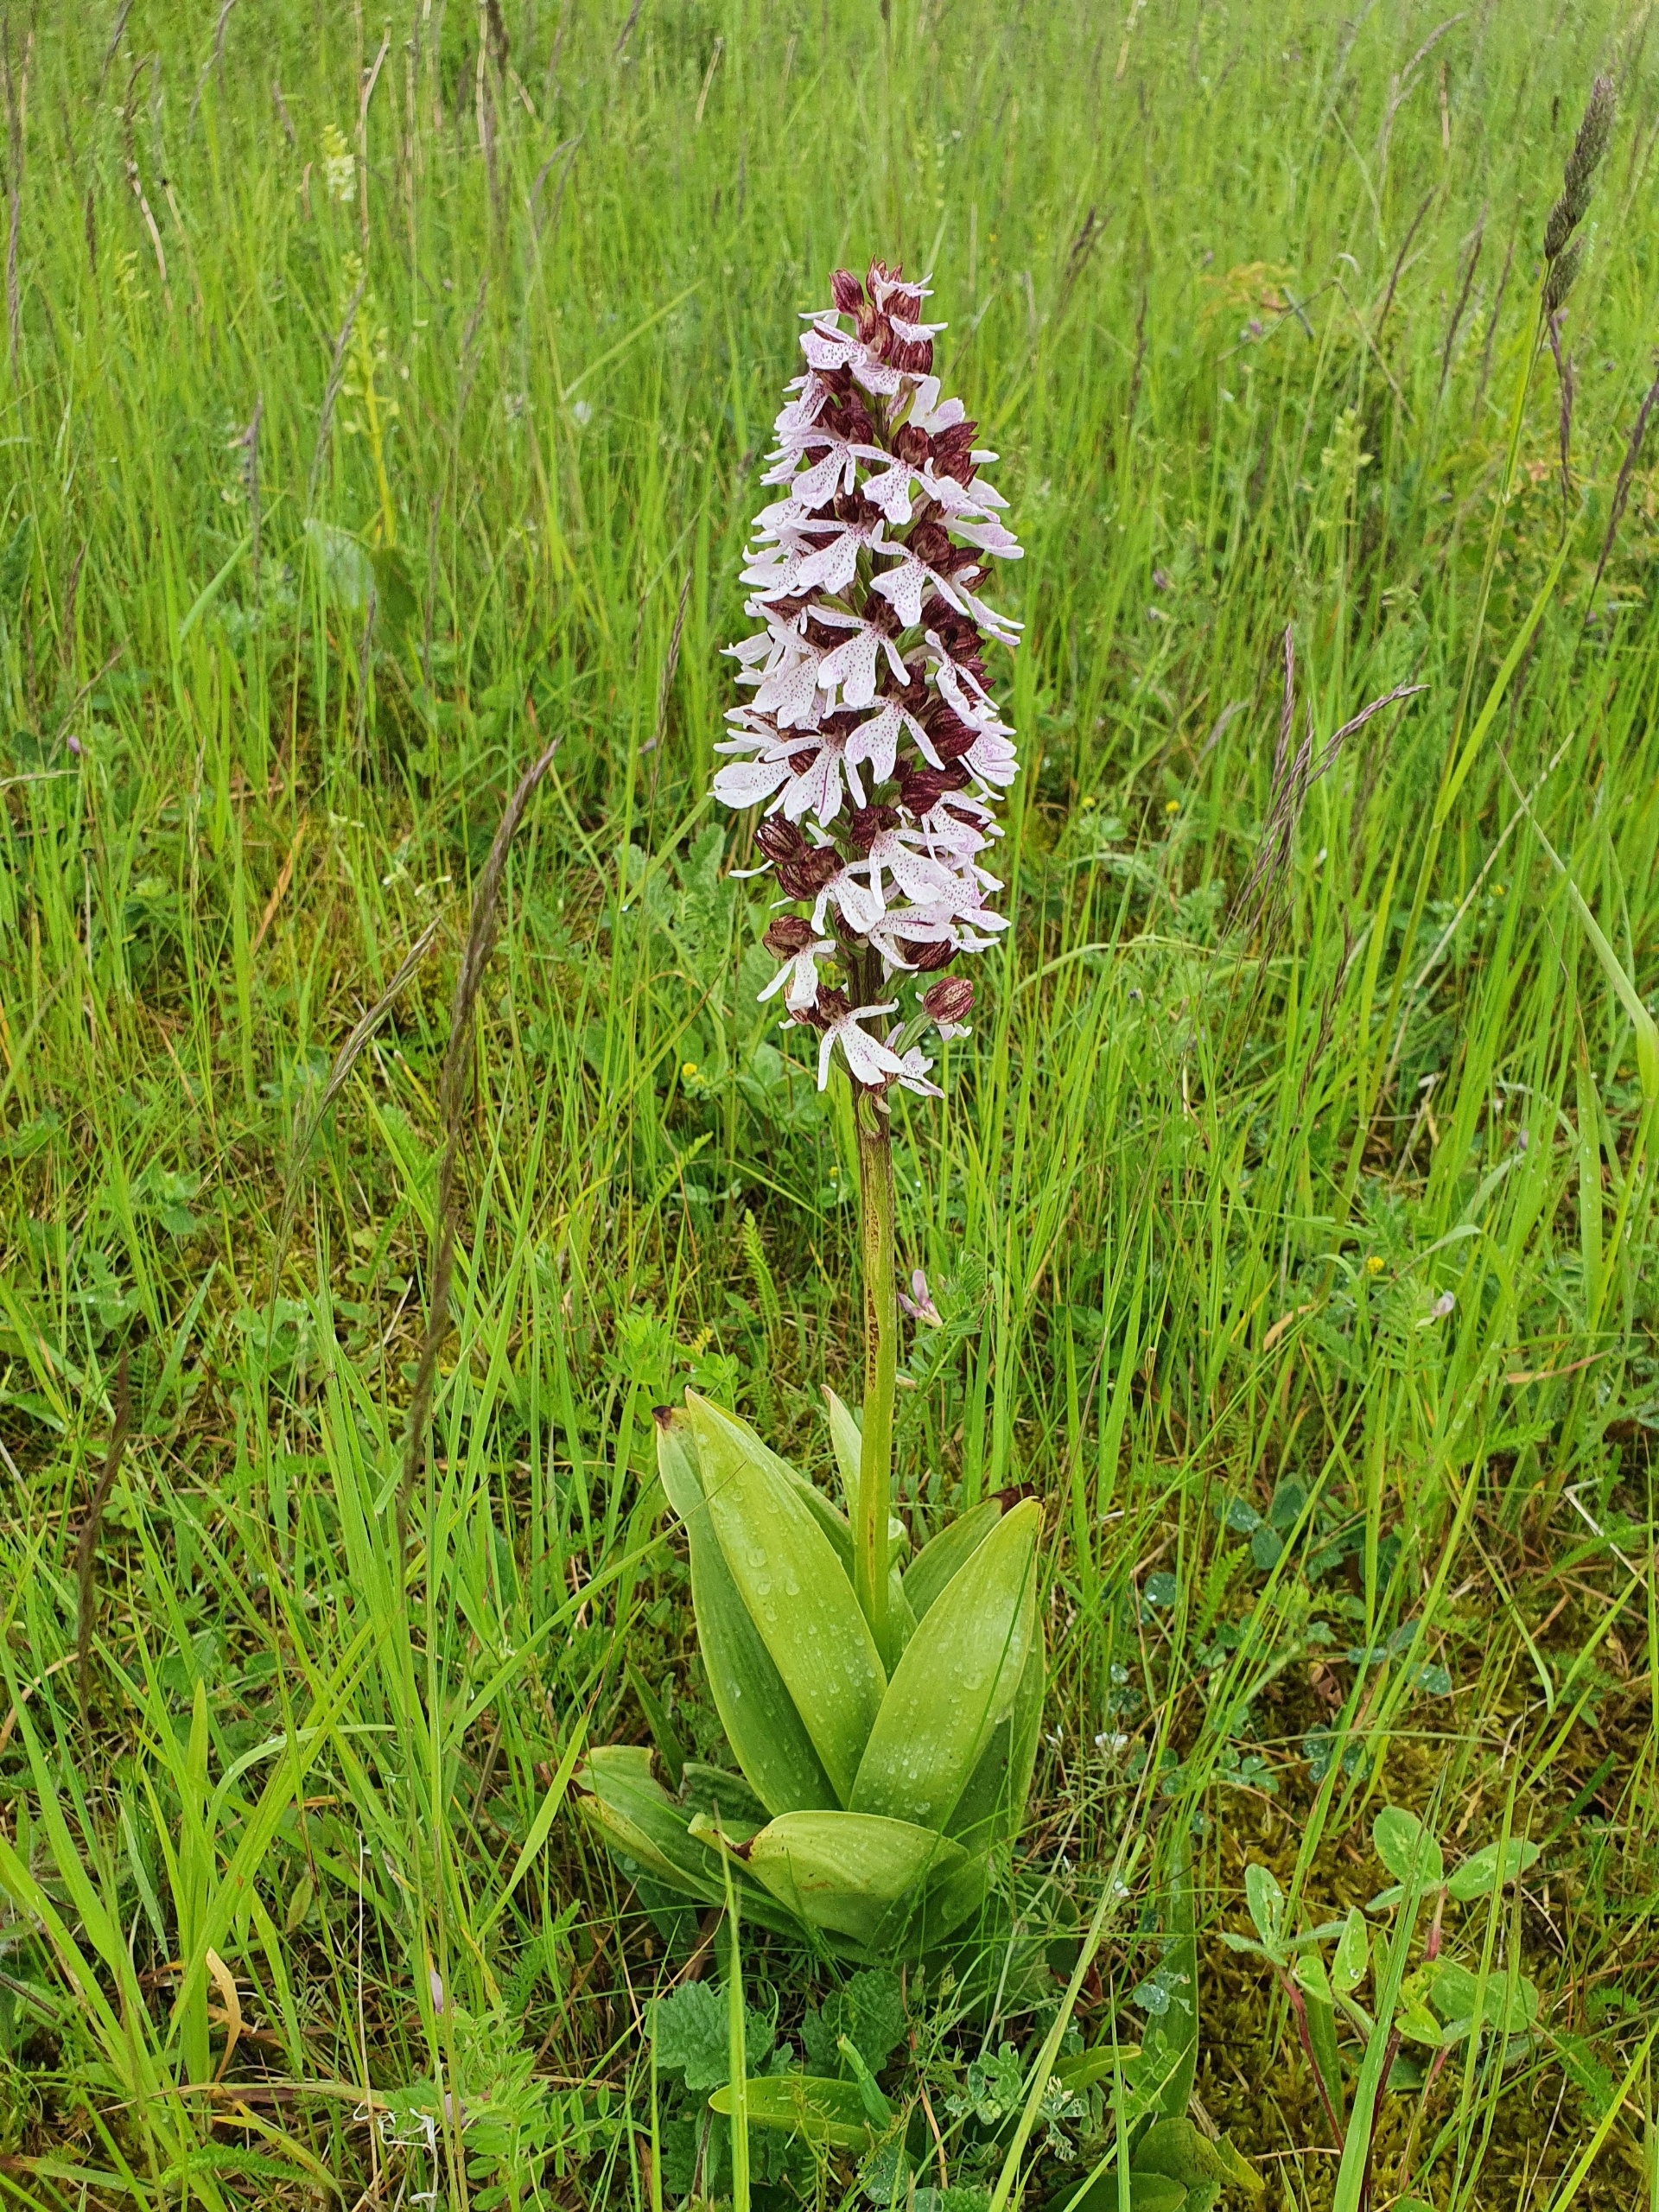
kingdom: Plantae
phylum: Tracheophyta
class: Liliopsida
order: Asparagales
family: Orchidaceae
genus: Orchis
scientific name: Orchis purpurea
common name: Stor gøgeurt
